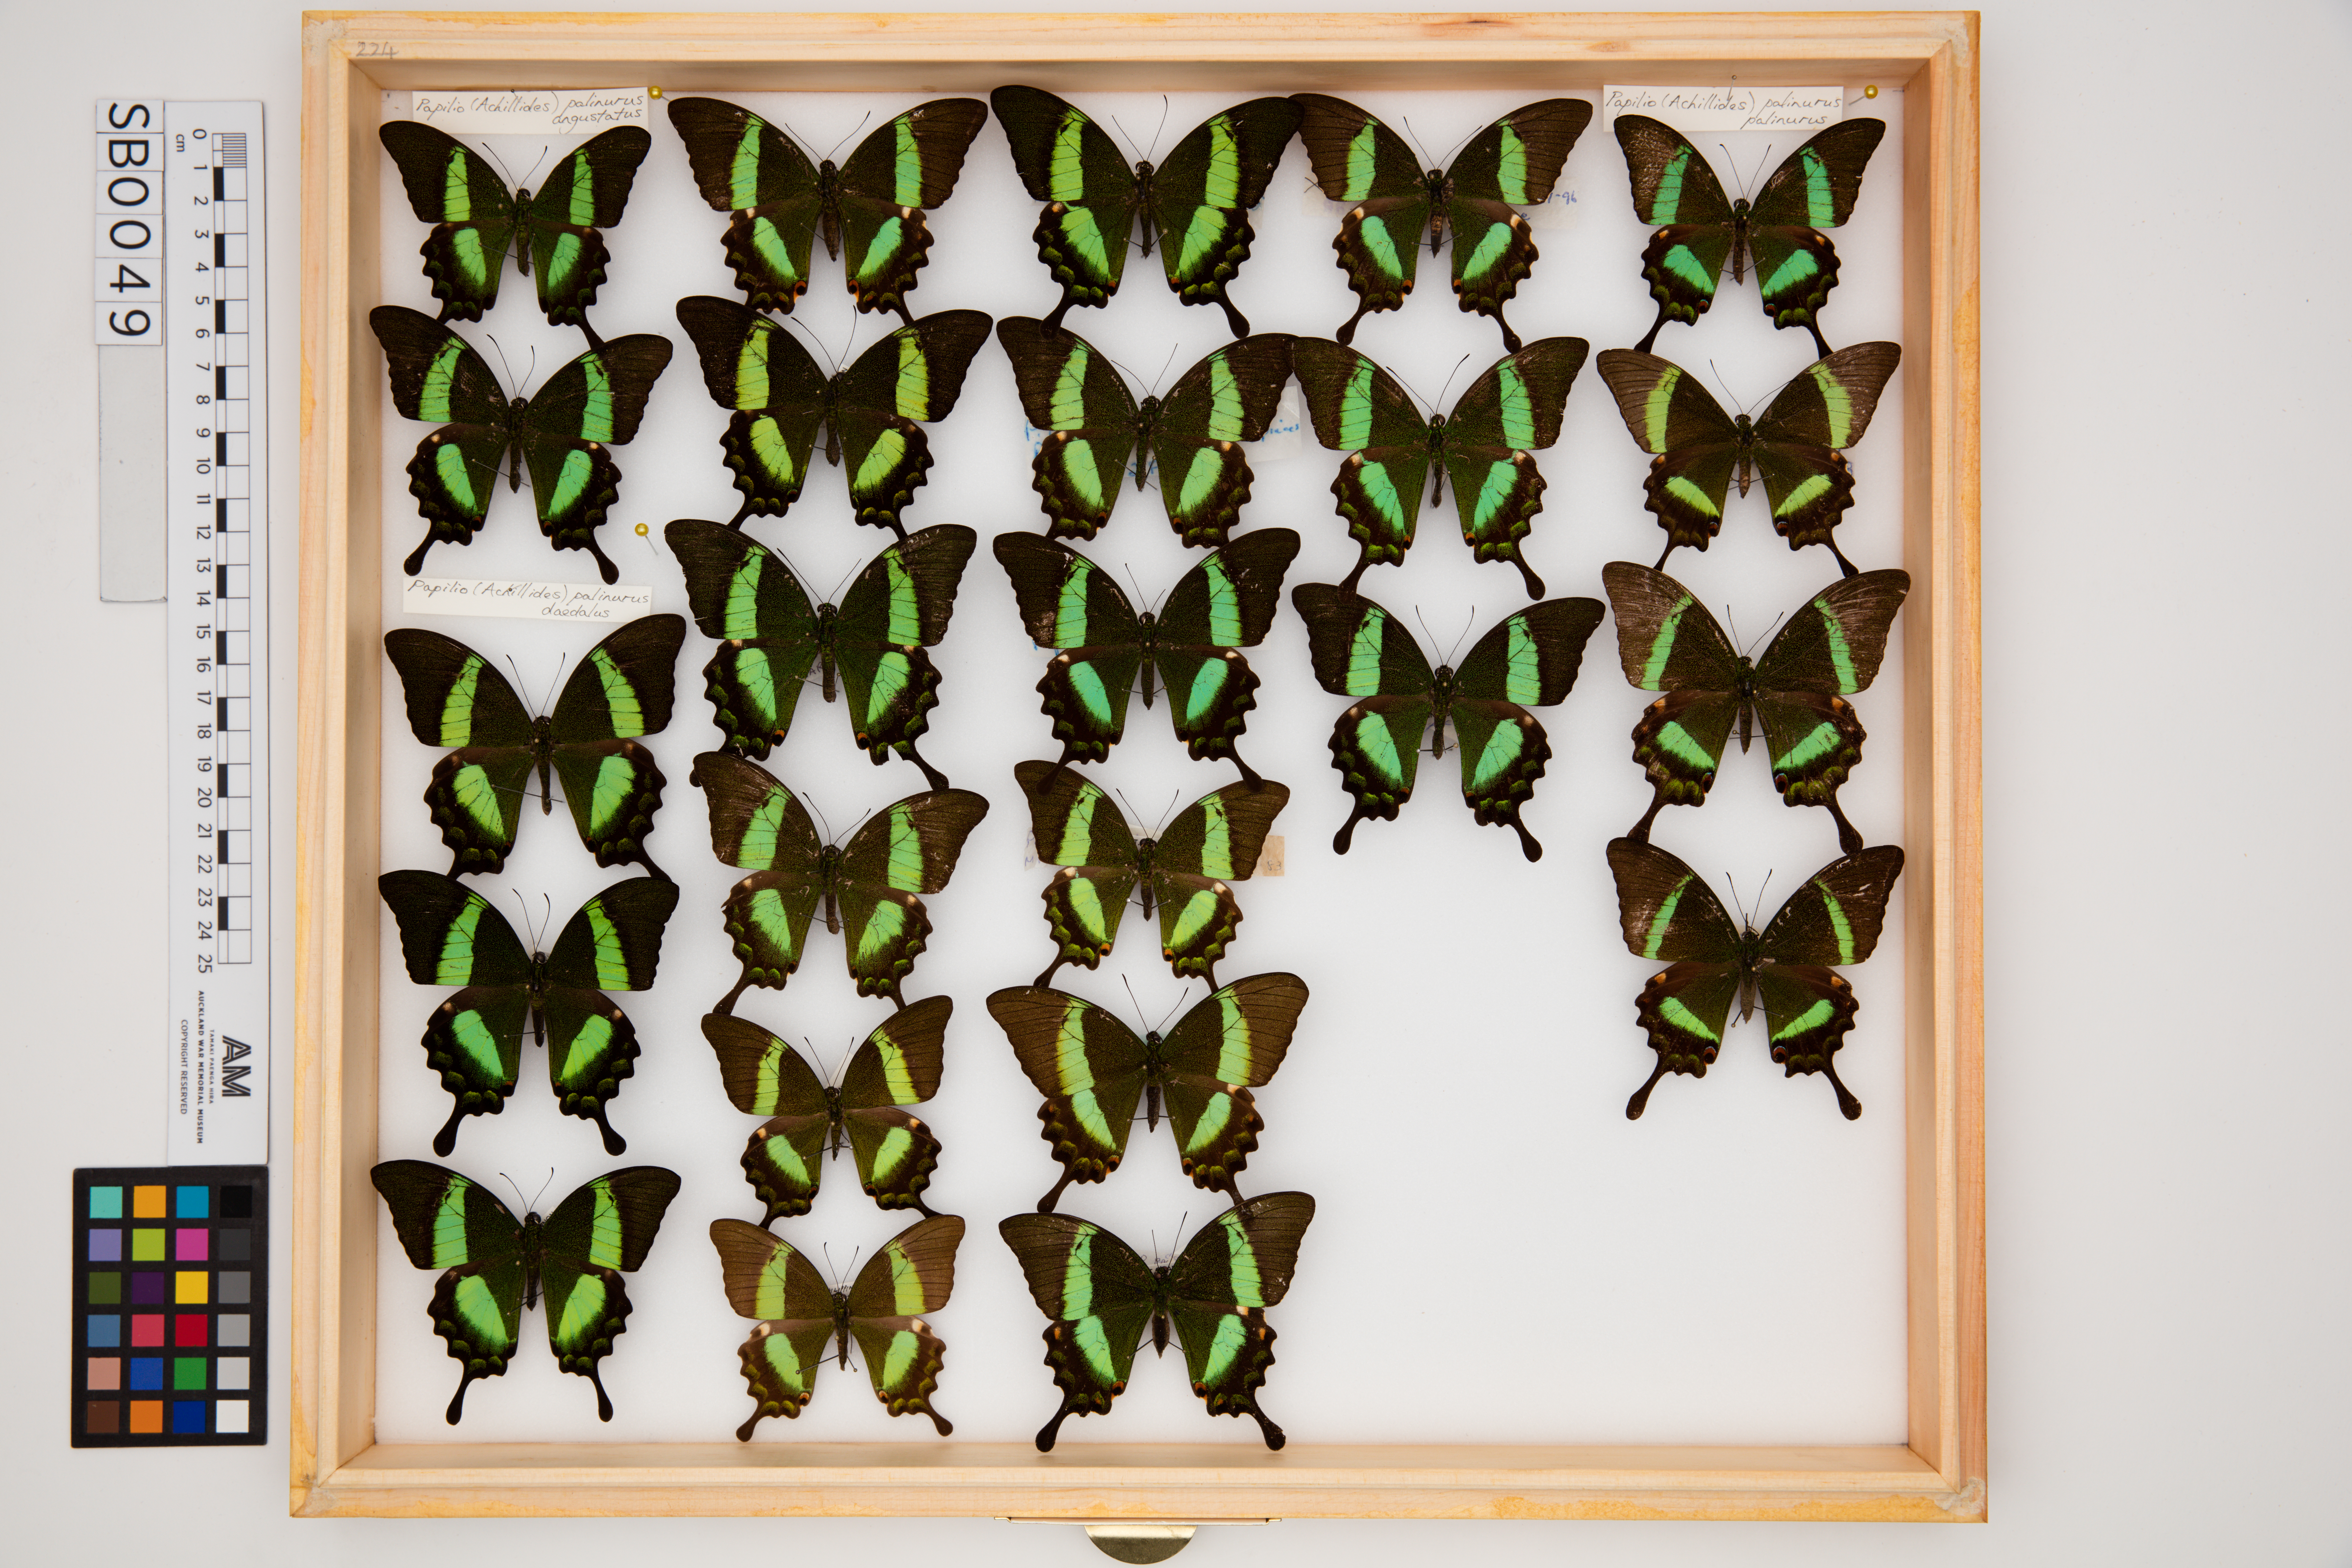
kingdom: Animalia
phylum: Arthropoda
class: Insecta
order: Lepidoptera
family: Papilionidae
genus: Papilio
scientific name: Papilio palinurus
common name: Banded peacock
